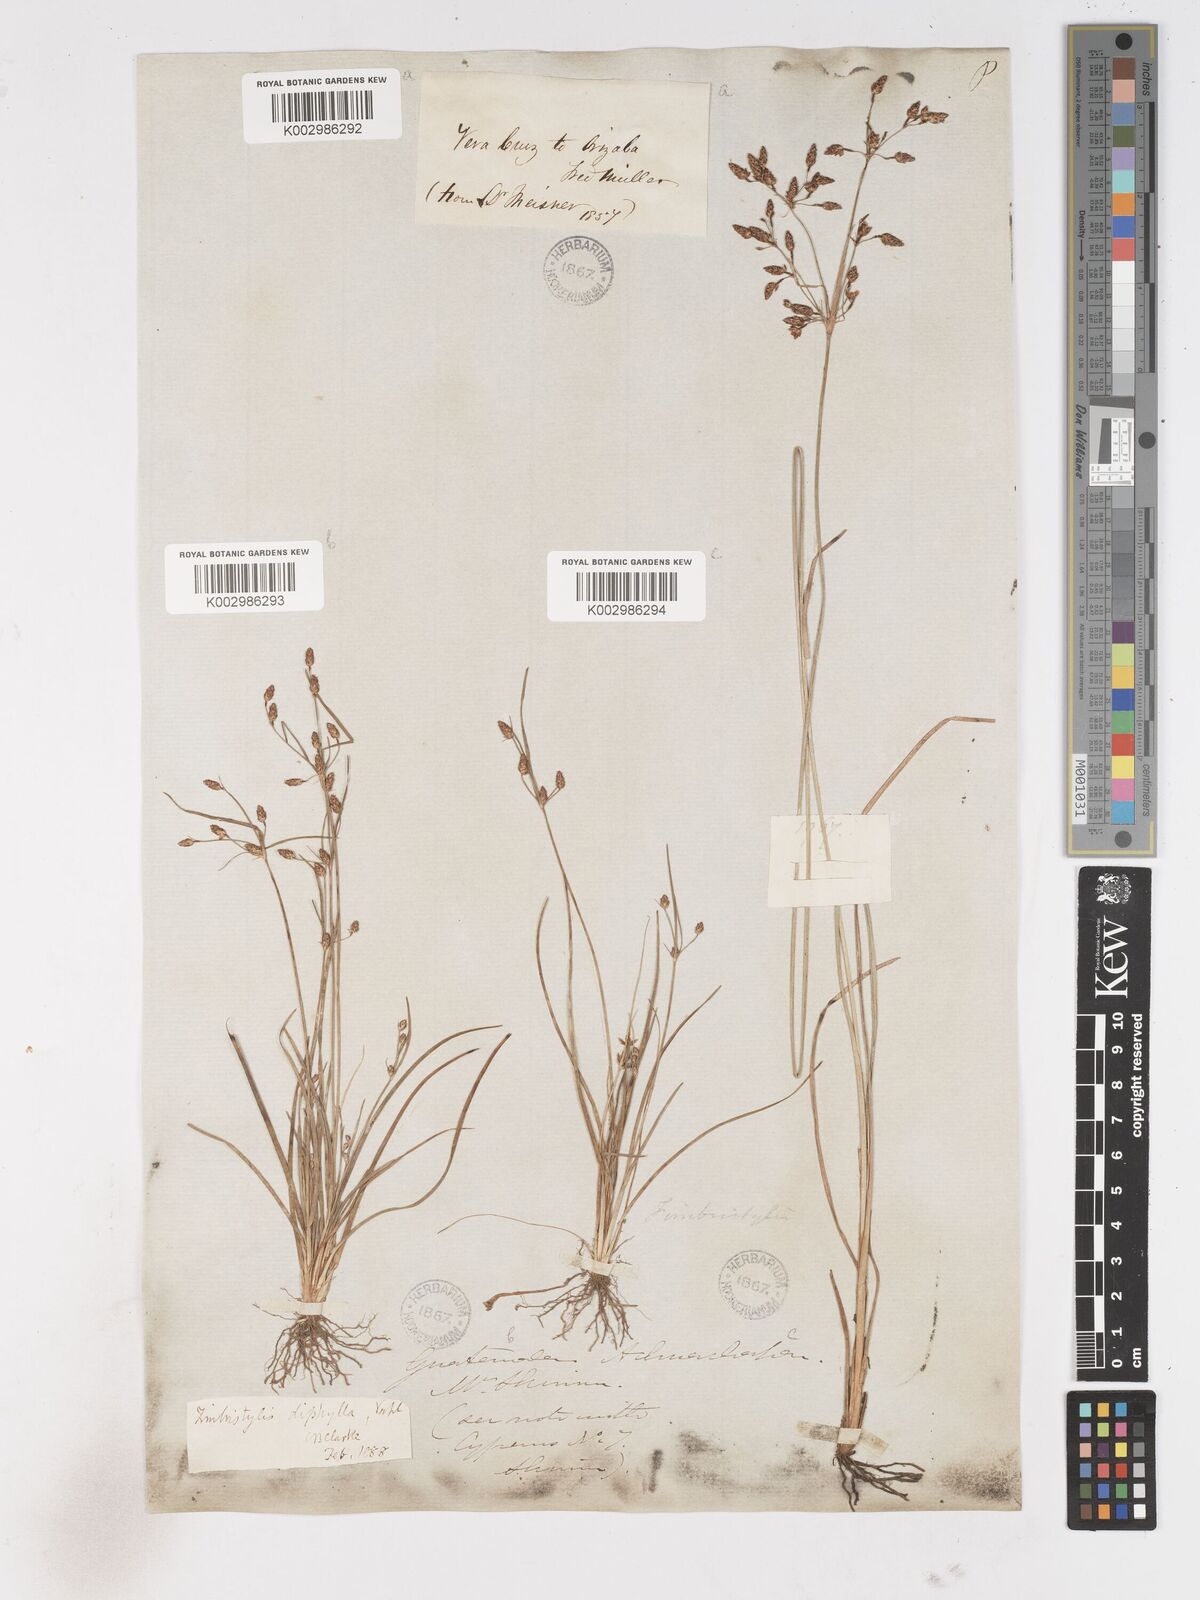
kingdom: Plantae
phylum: Tracheophyta
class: Liliopsida
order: Poales
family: Cyperaceae
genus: Fimbristylis
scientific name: Fimbristylis dichotoma
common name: Forked fimbry
